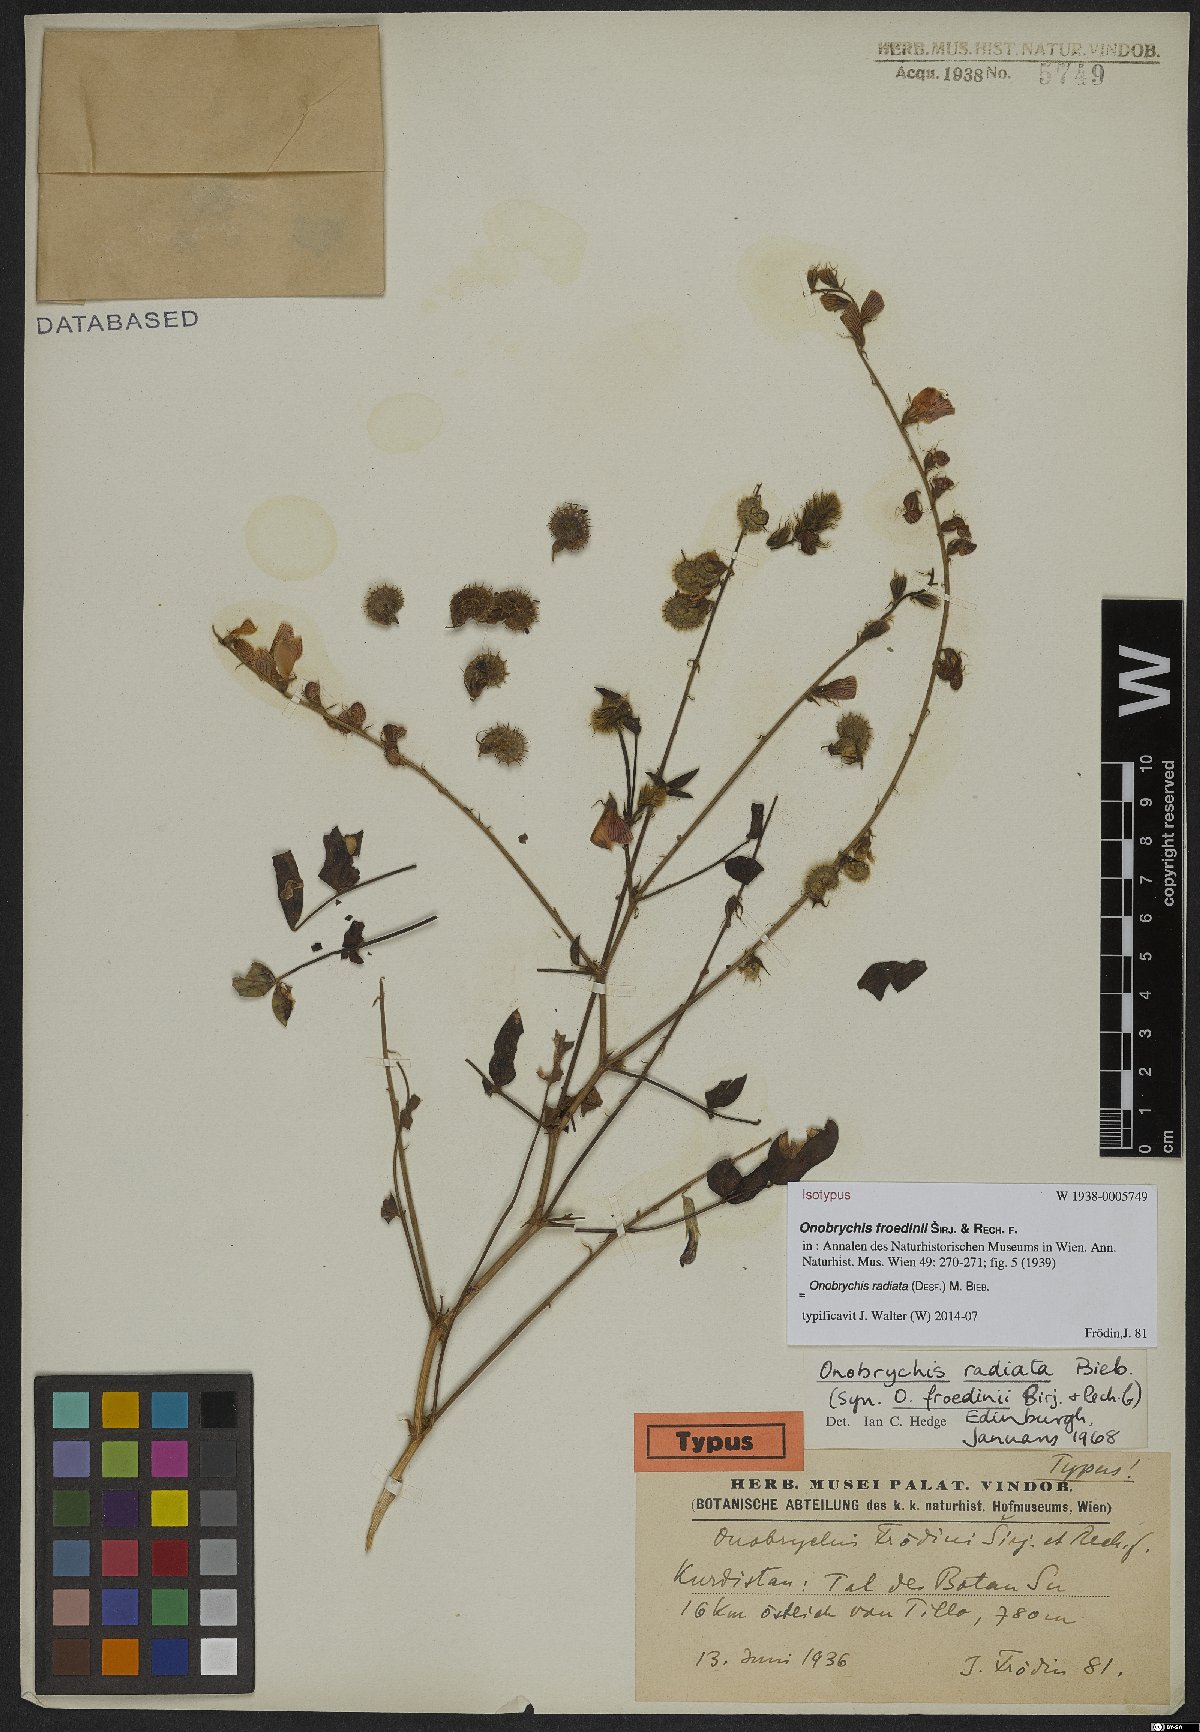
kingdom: Plantae
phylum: Tracheophyta
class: Magnoliopsida
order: Fabales
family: Fabaceae
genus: Onobrychis
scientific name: Onobrychis radiata
